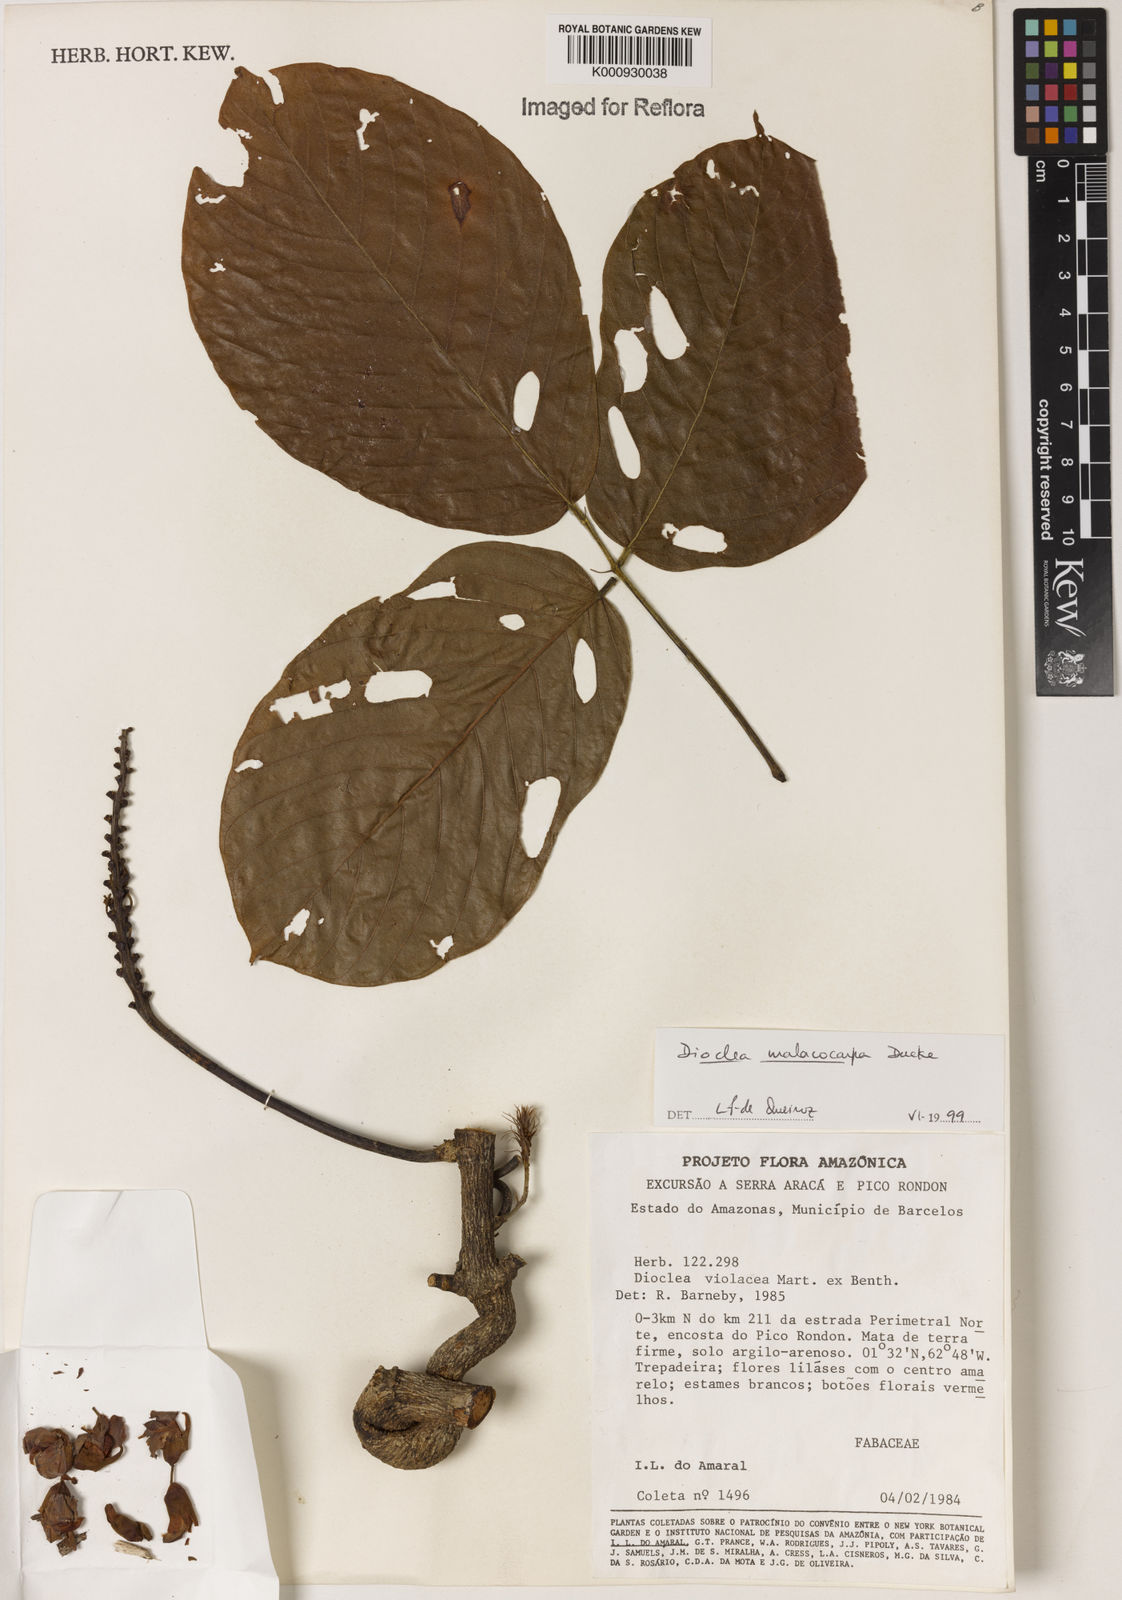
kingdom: Plantae
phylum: Tracheophyta
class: Magnoliopsida
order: Fabales
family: Fabaceae
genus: Macropsychanthus
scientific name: Macropsychanthus malacocarpus
